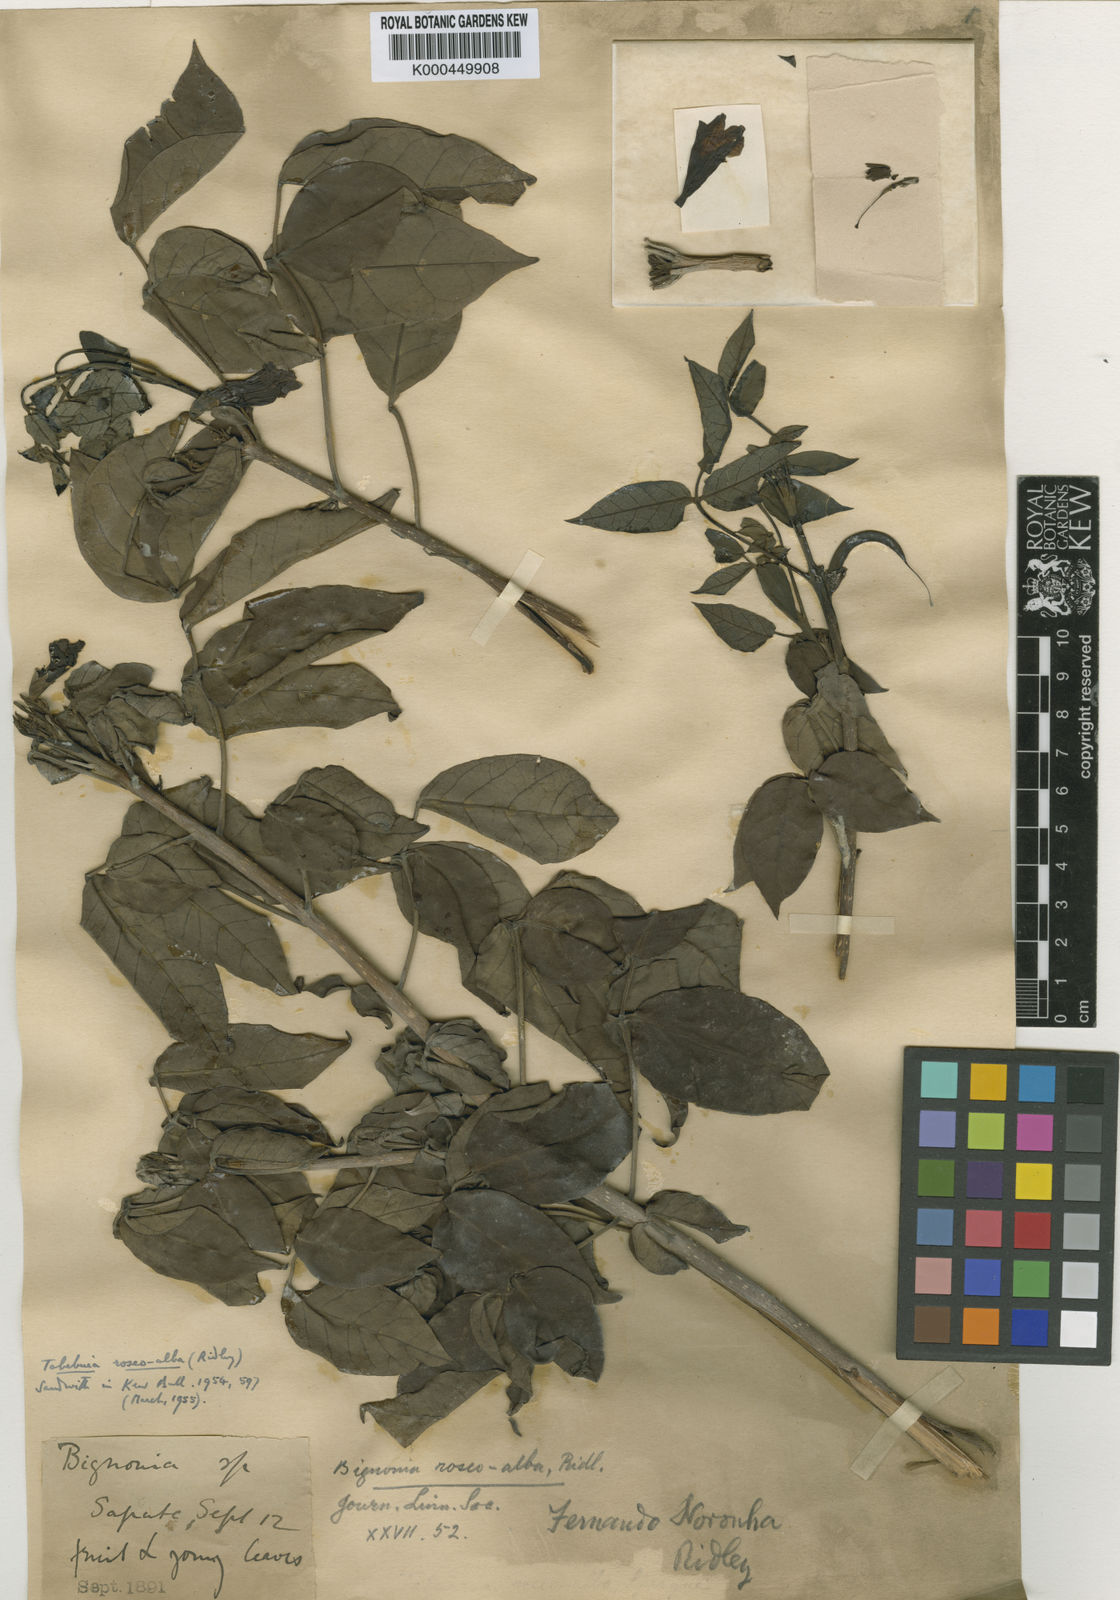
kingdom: Plantae
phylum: Tracheophyta
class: Magnoliopsida
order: Lamiales
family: Bignoniaceae
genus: Tabebuia
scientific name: Tabebuia roseoalba
